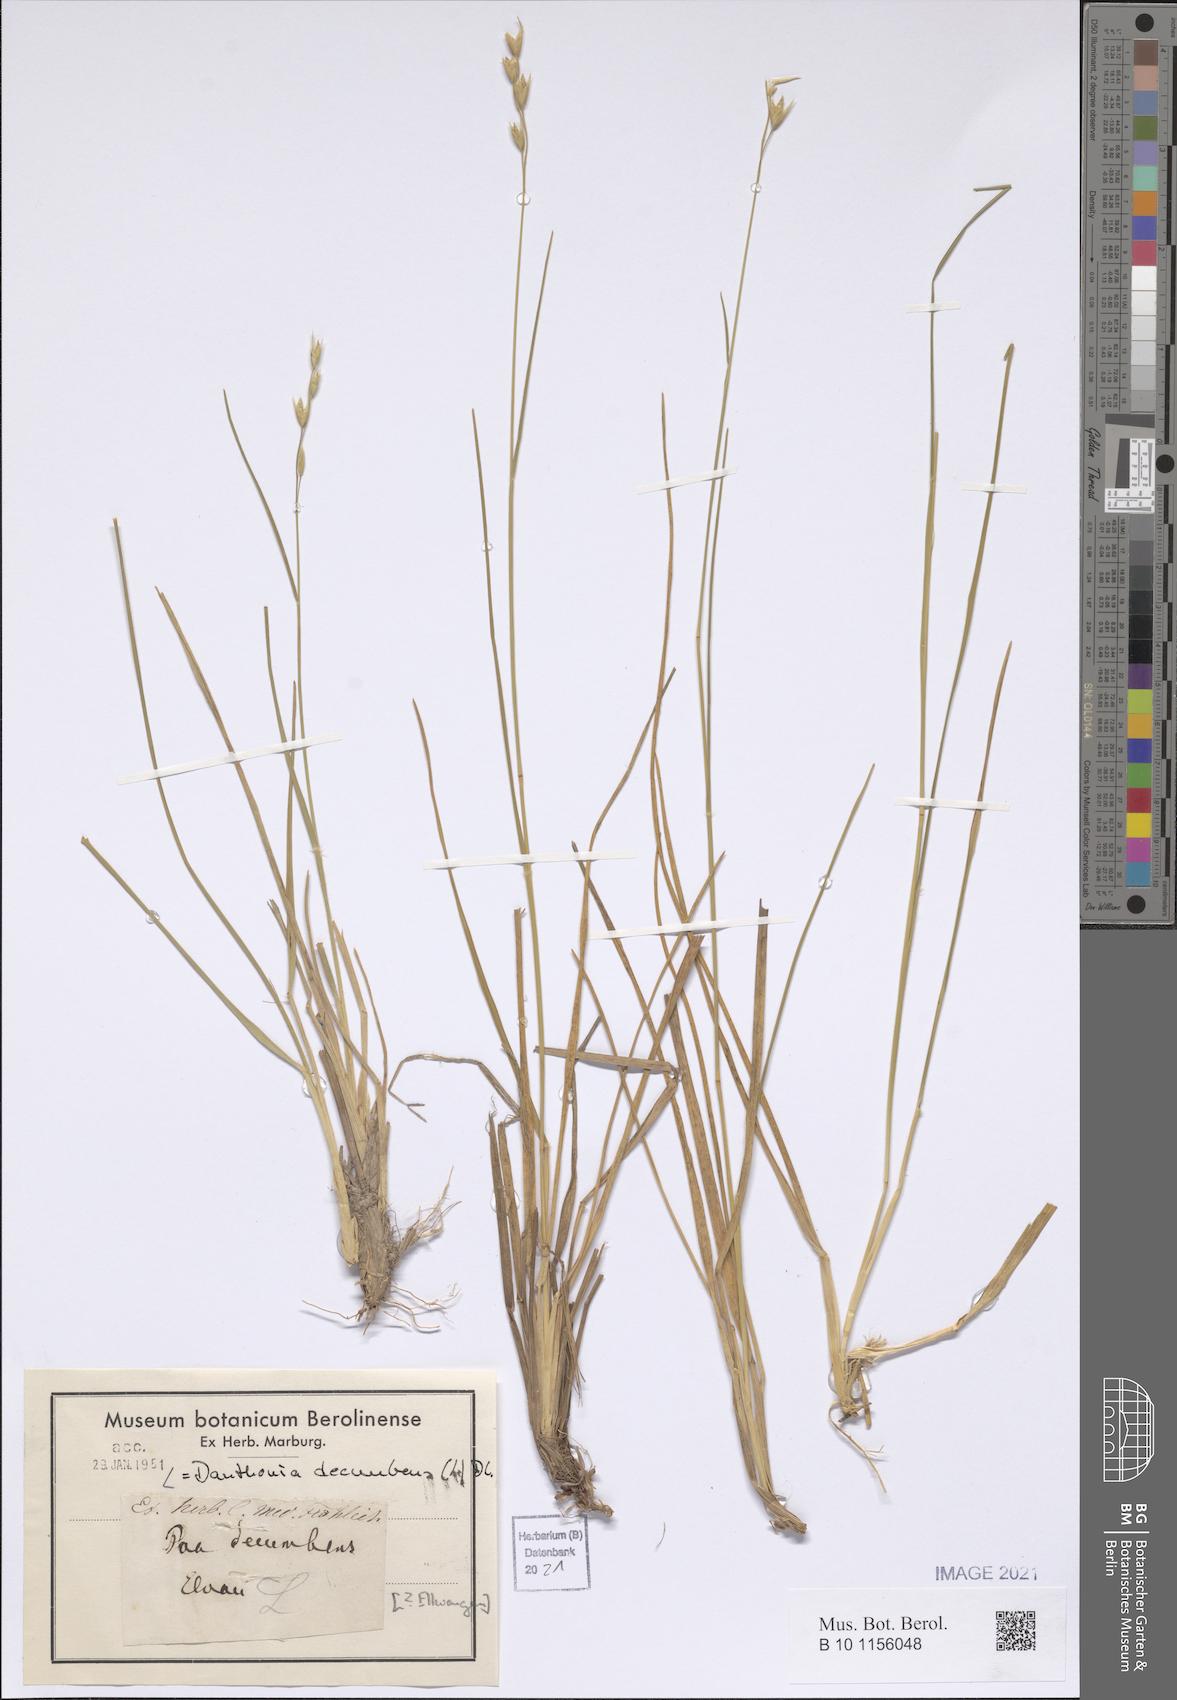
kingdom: Plantae
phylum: Tracheophyta
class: Liliopsida
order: Poales
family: Poaceae
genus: Danthonia
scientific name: Danthonia decumbens
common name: Common heathgrass
